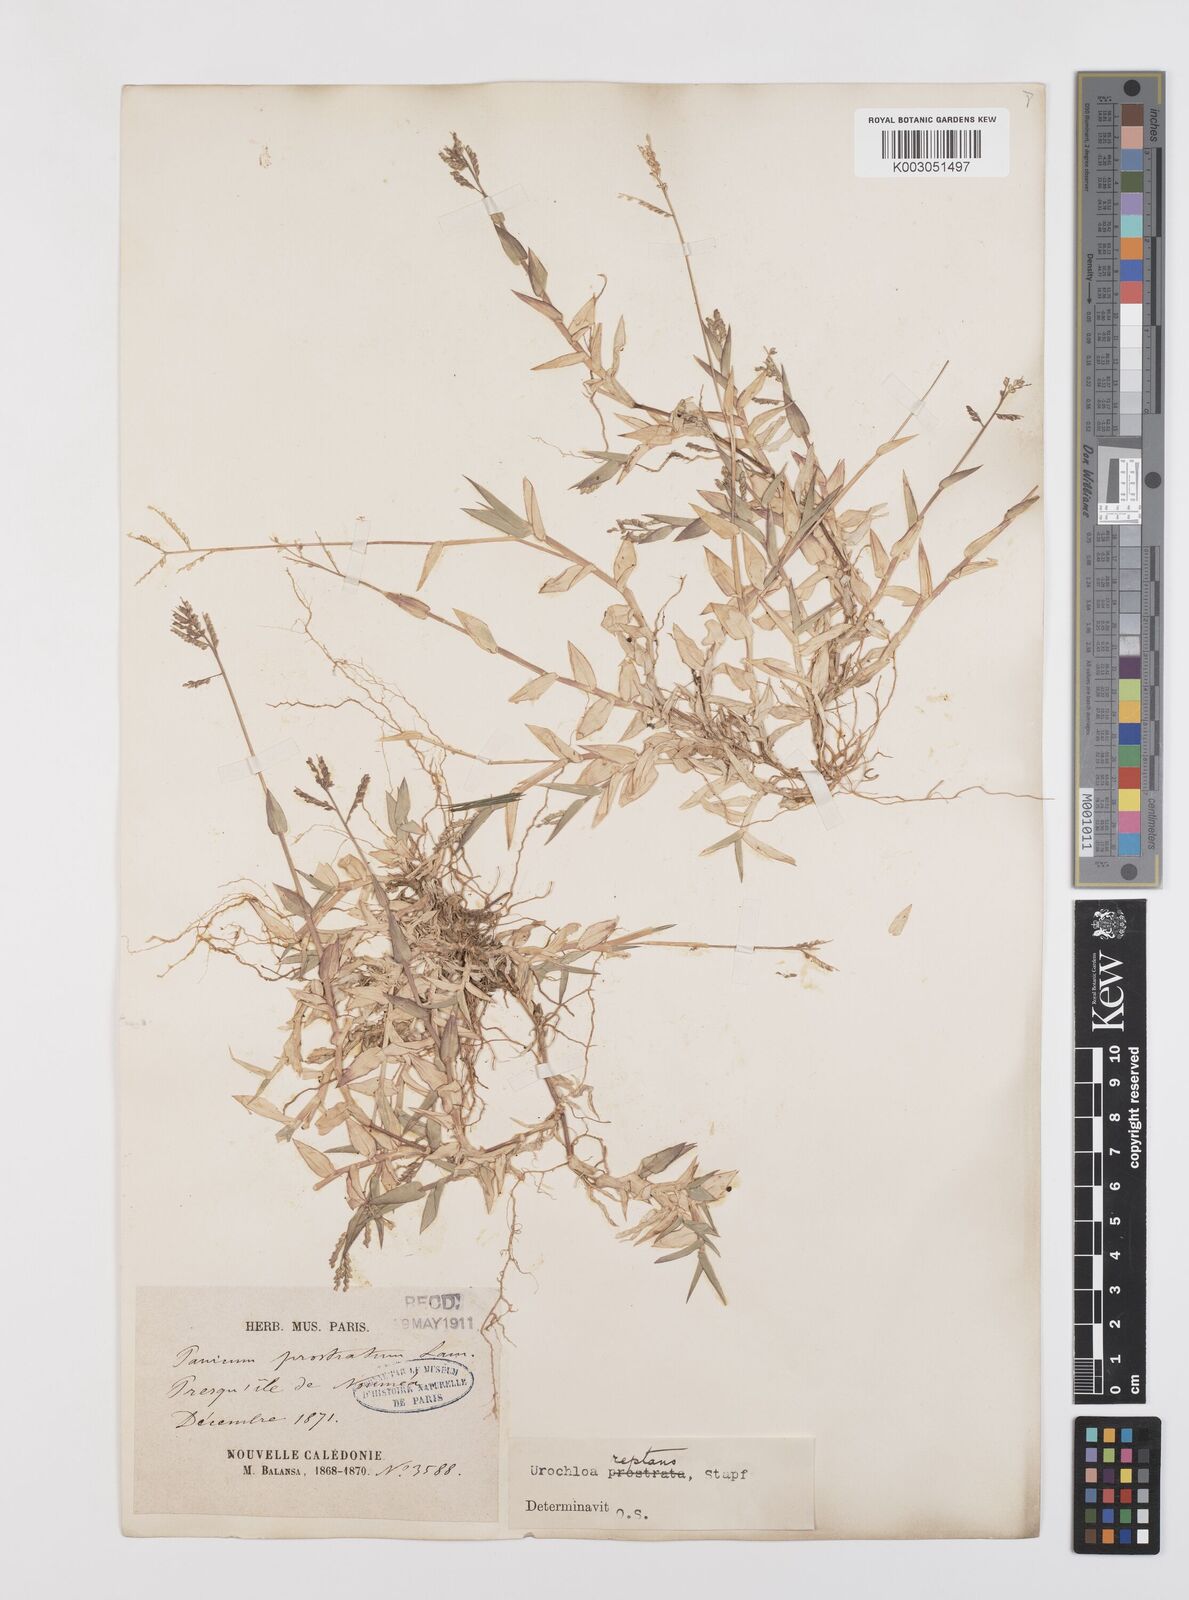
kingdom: Plantae
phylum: Tracheophyta
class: Liliopsida
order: Poales
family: Poaceae
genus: Urochloa
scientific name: Urochloa reptans
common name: Sprawling signalgrass
